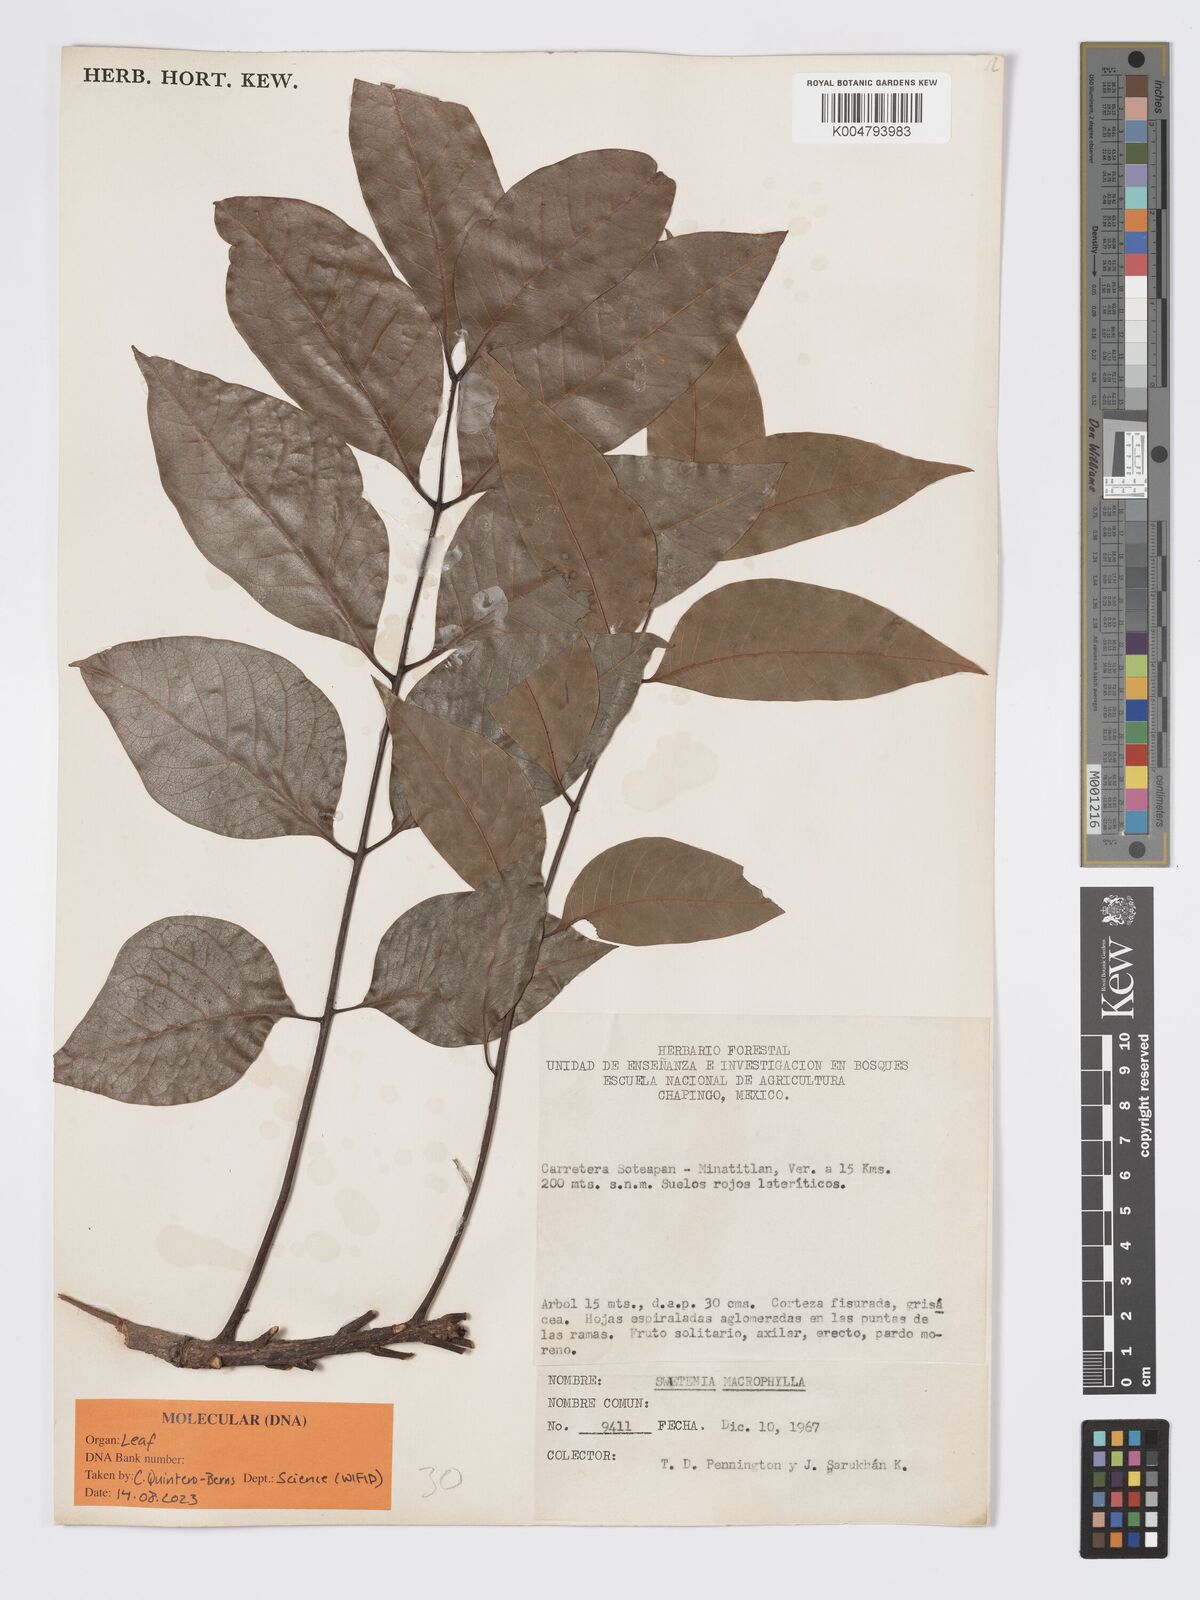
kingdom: Plantae
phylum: Tracheophyta
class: Magnoliopsida
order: Sapindales
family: Meliaceae
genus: Swietenia
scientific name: Swietenia macrophylla
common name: Honduras mahogany
